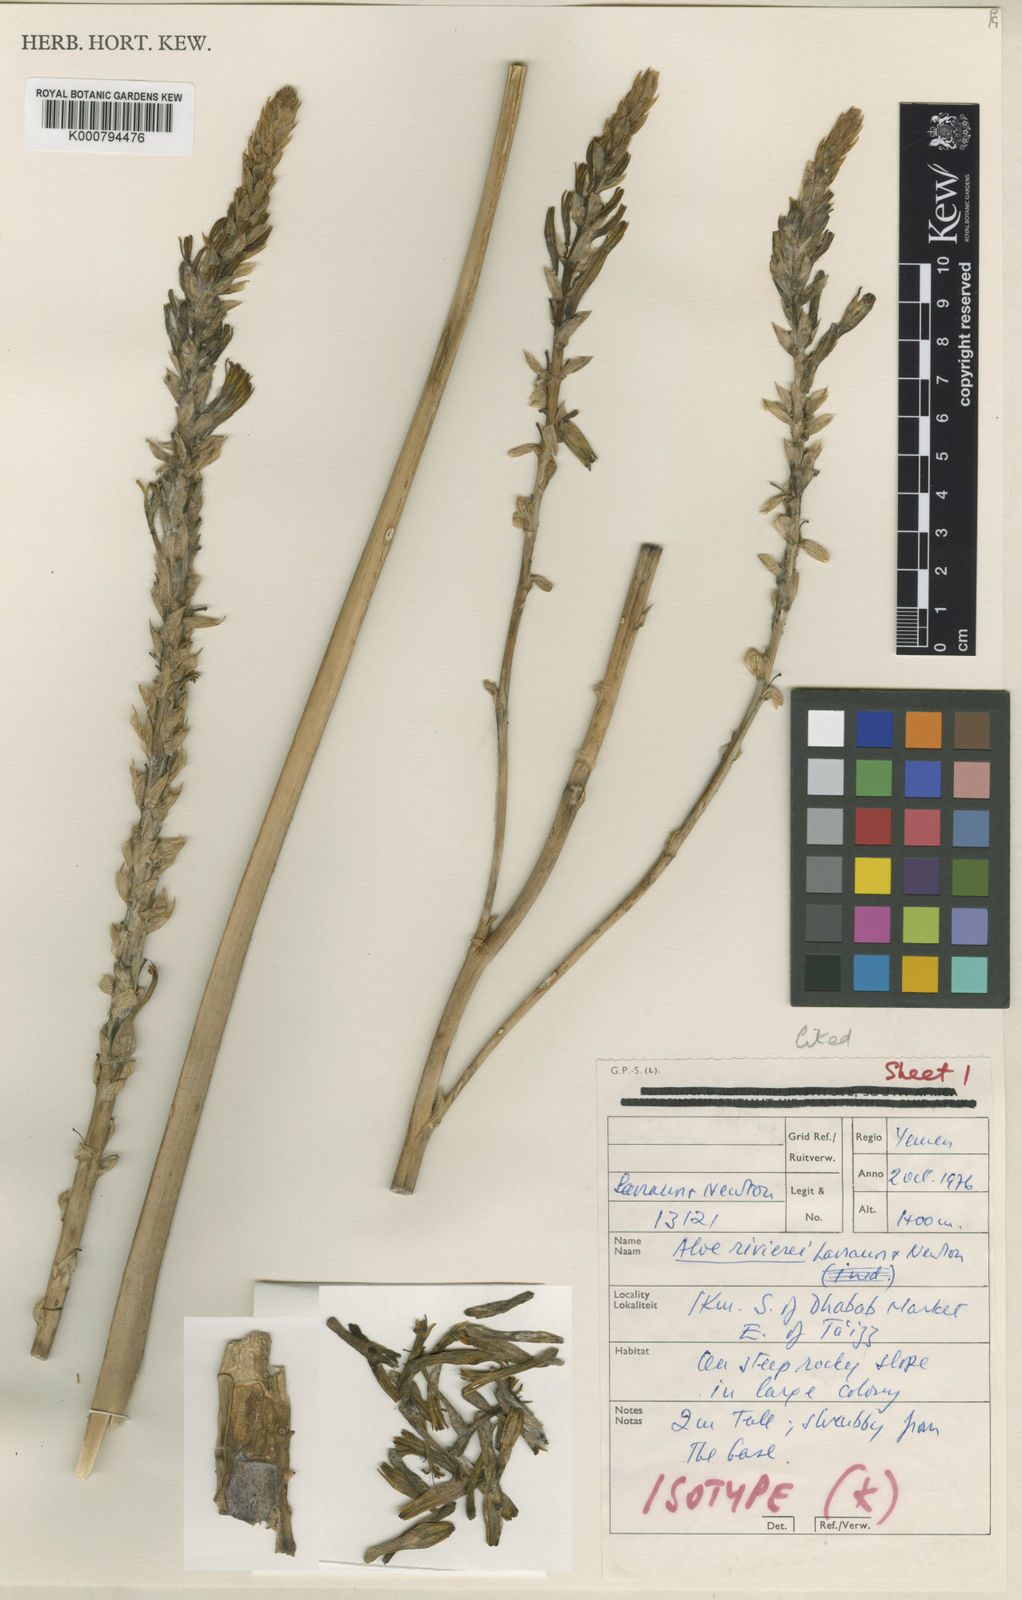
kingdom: Plantae
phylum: Tracheophyta
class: Liliopsida
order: Asparagales
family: Asphodelaceae
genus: Aloe
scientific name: Aloe rivierei
